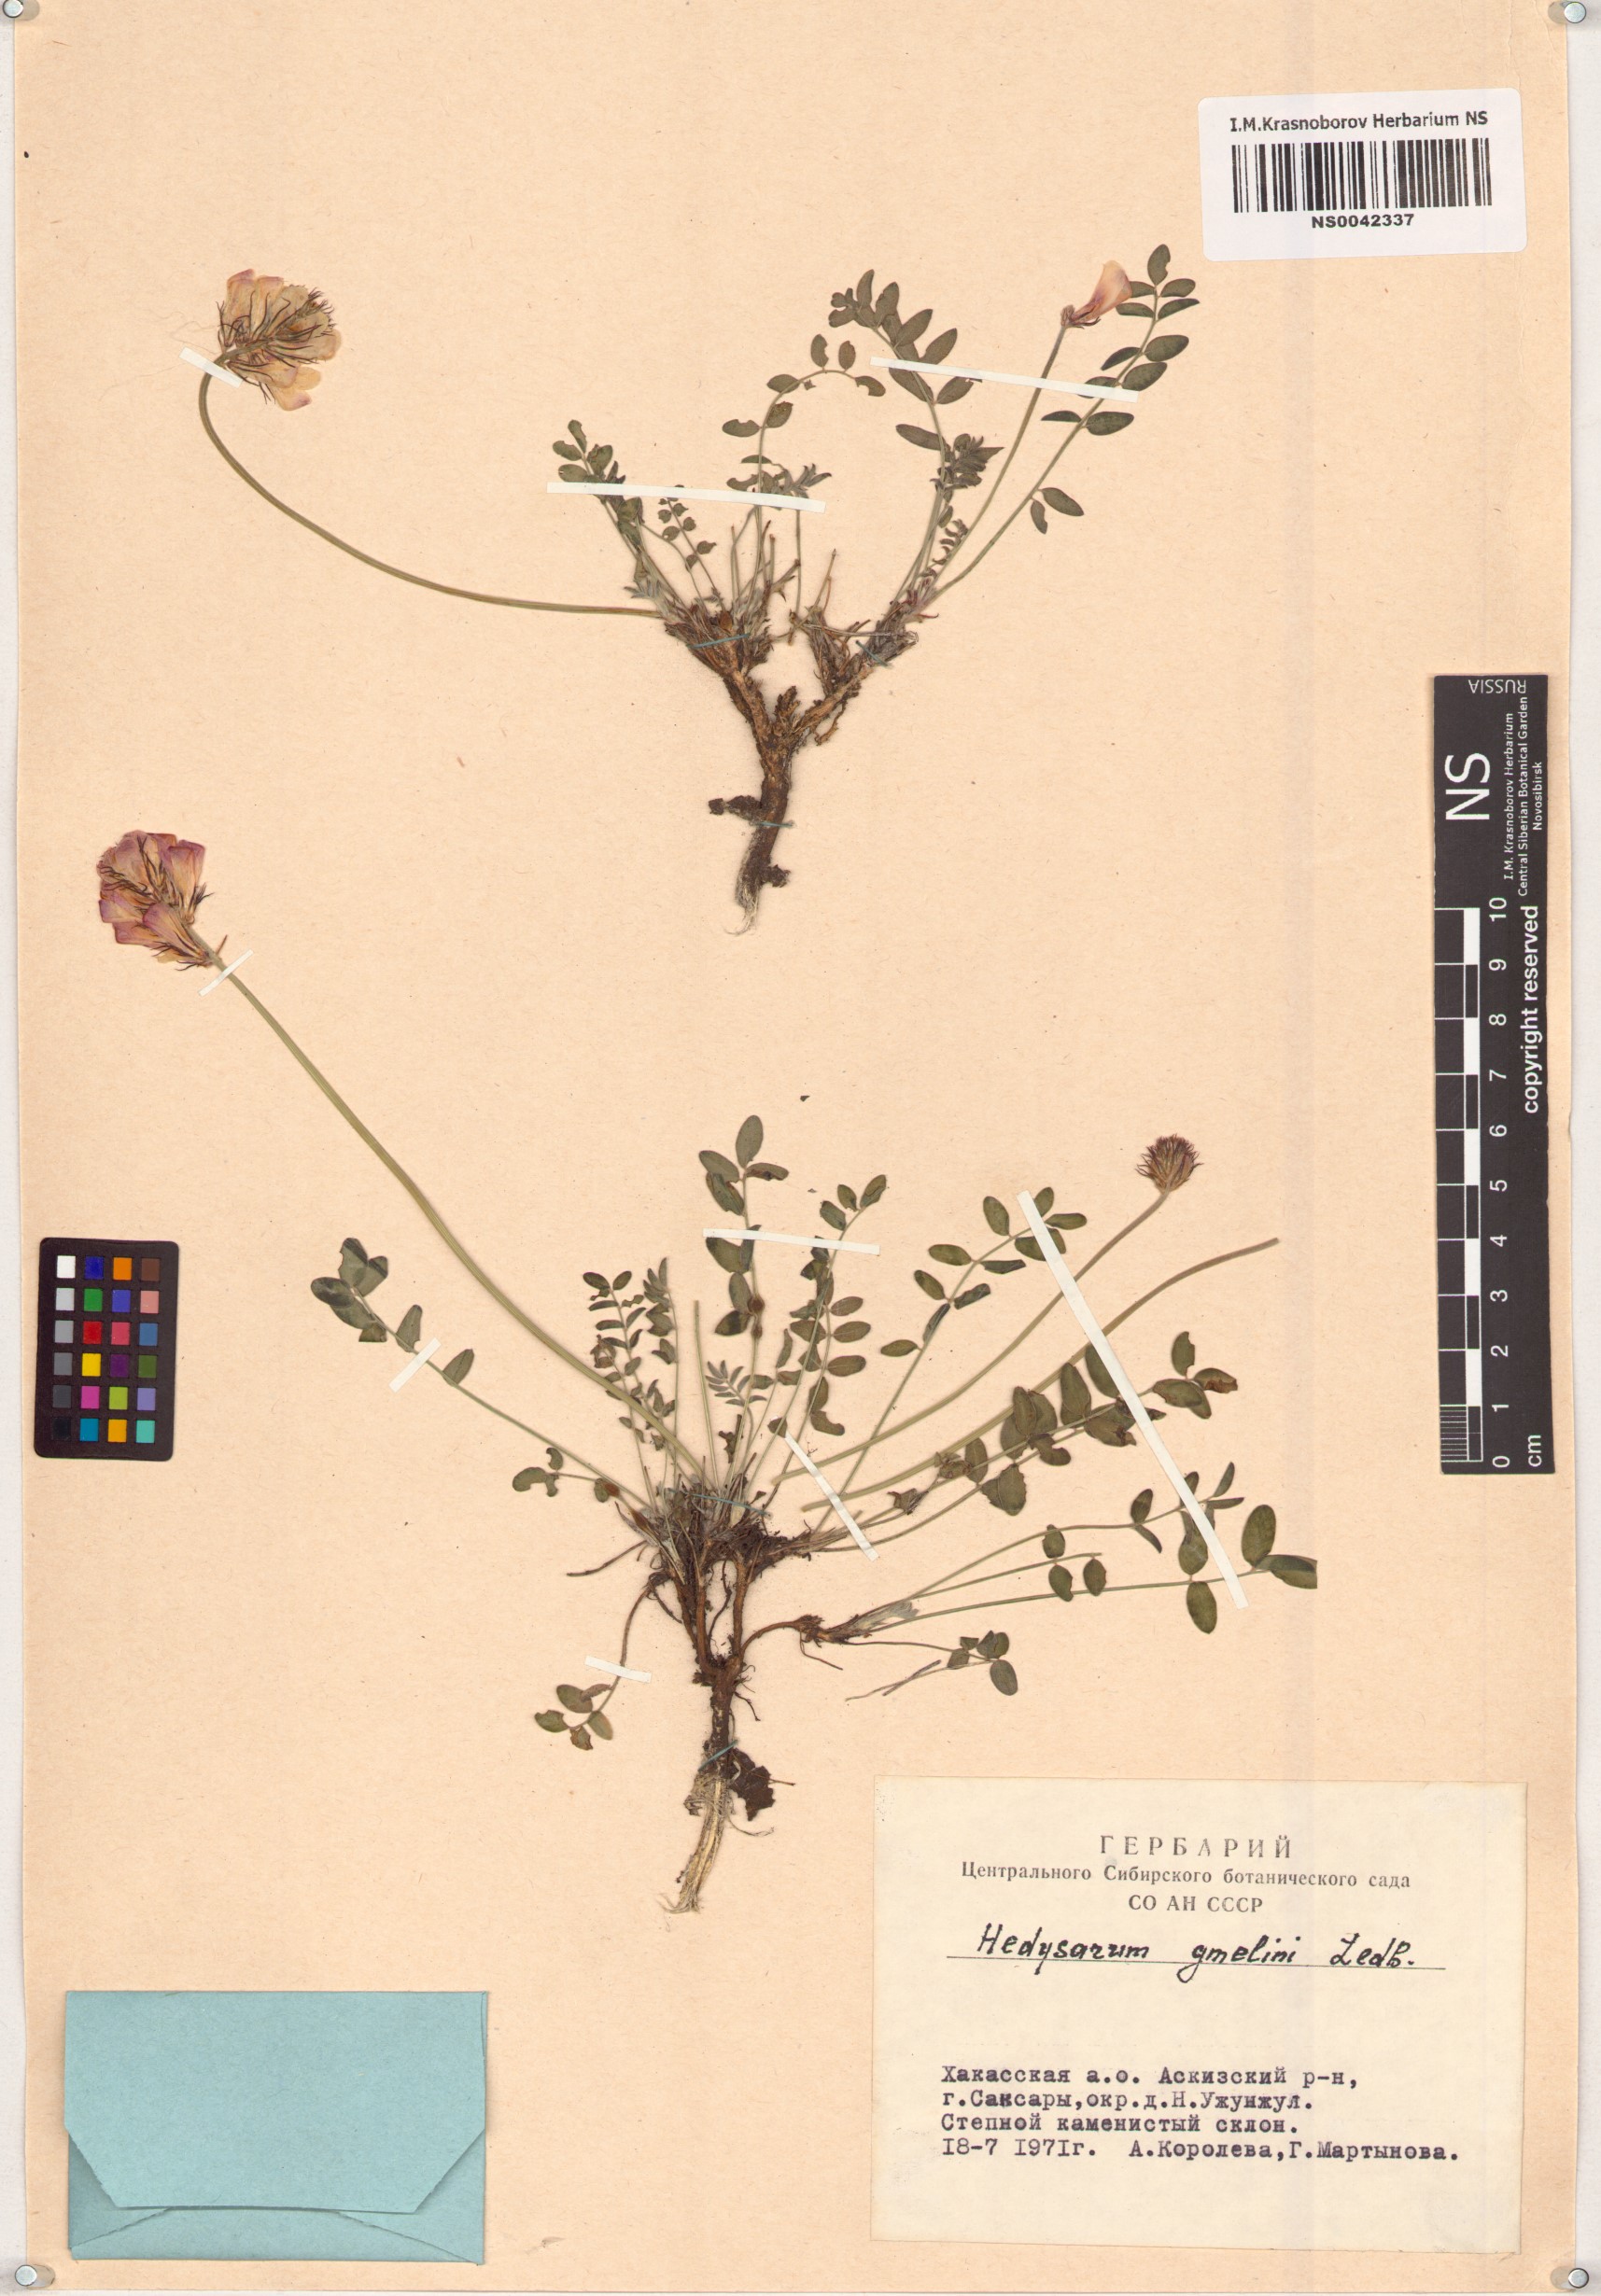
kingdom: Plantae
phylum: Tracheophyta
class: Magnoliopsida
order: Fabales
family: Fabaceae
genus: Hedysarum
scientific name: Hedysarum gmelinii
